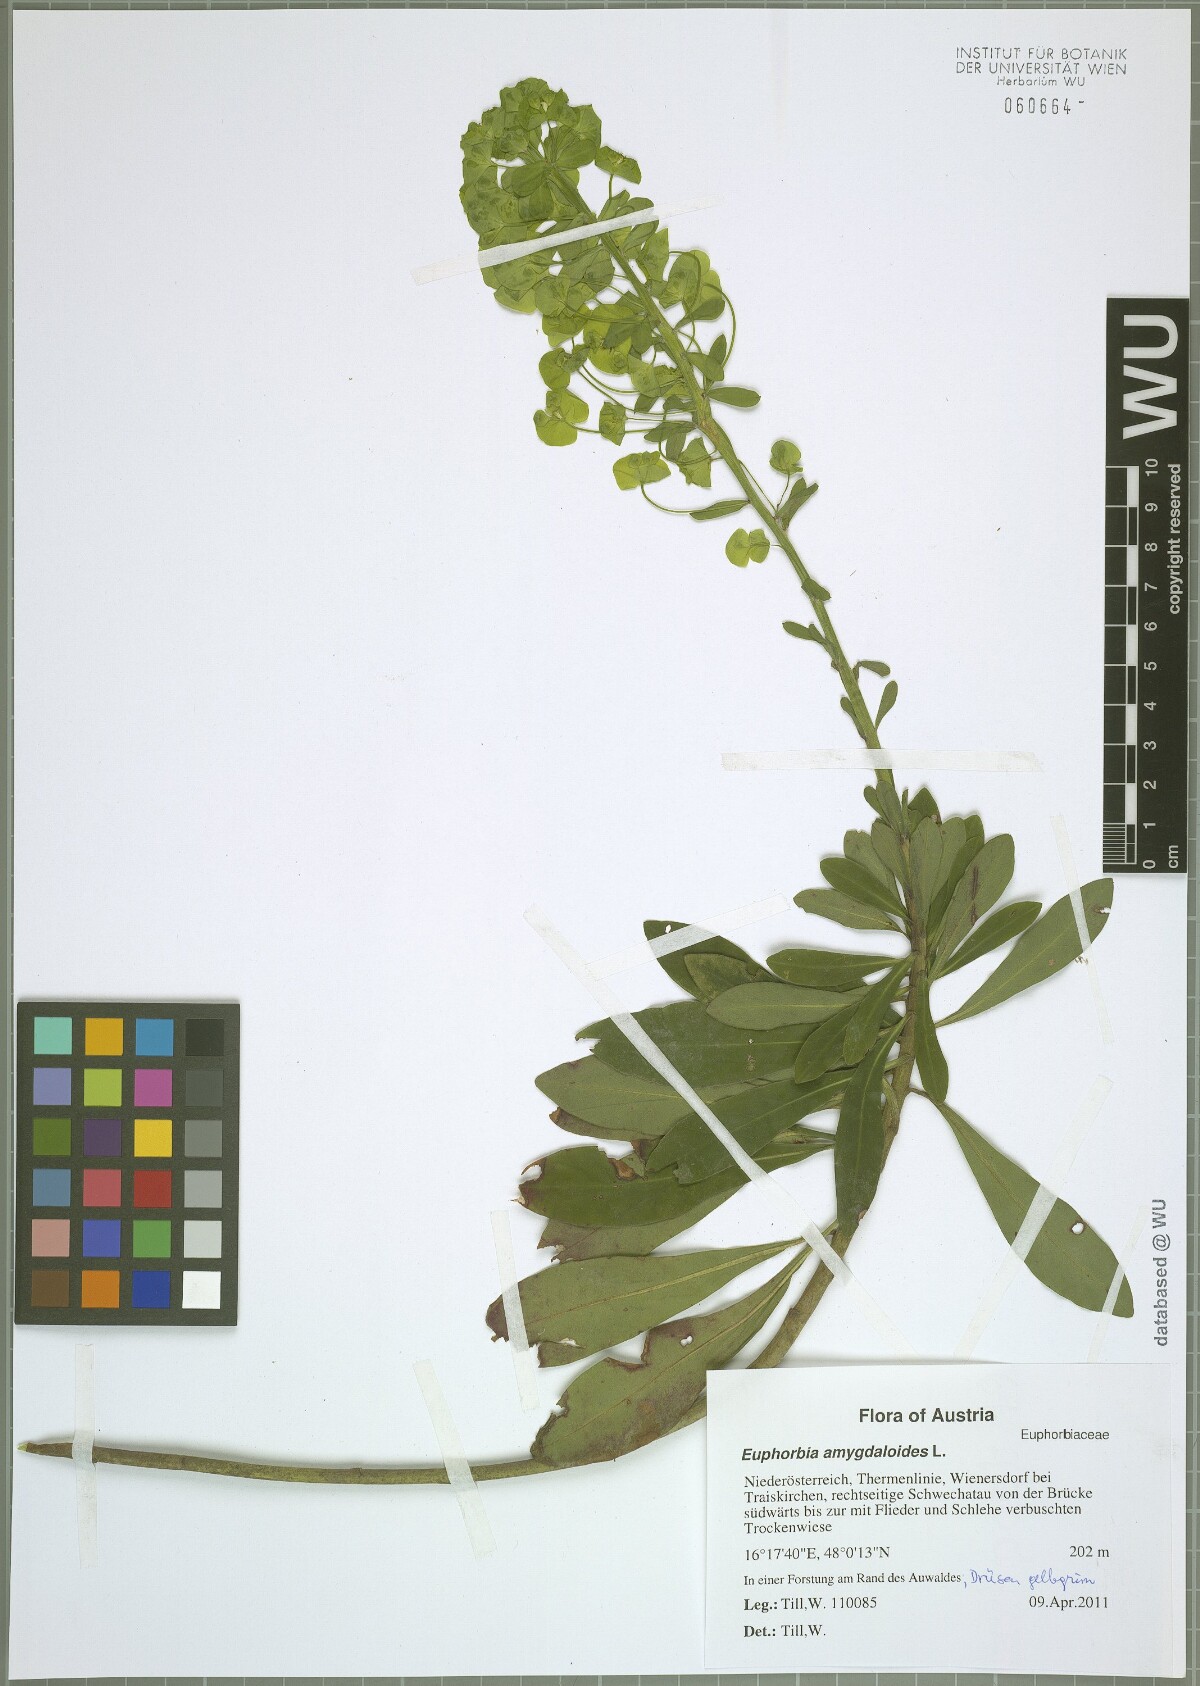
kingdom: Plantae
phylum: Tracheophyta
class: Magnoliopsida
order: Malpighiales
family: Euphorbiaceae
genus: Euphorbia
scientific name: Euphorbia amygdaloides
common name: Wood spurge
